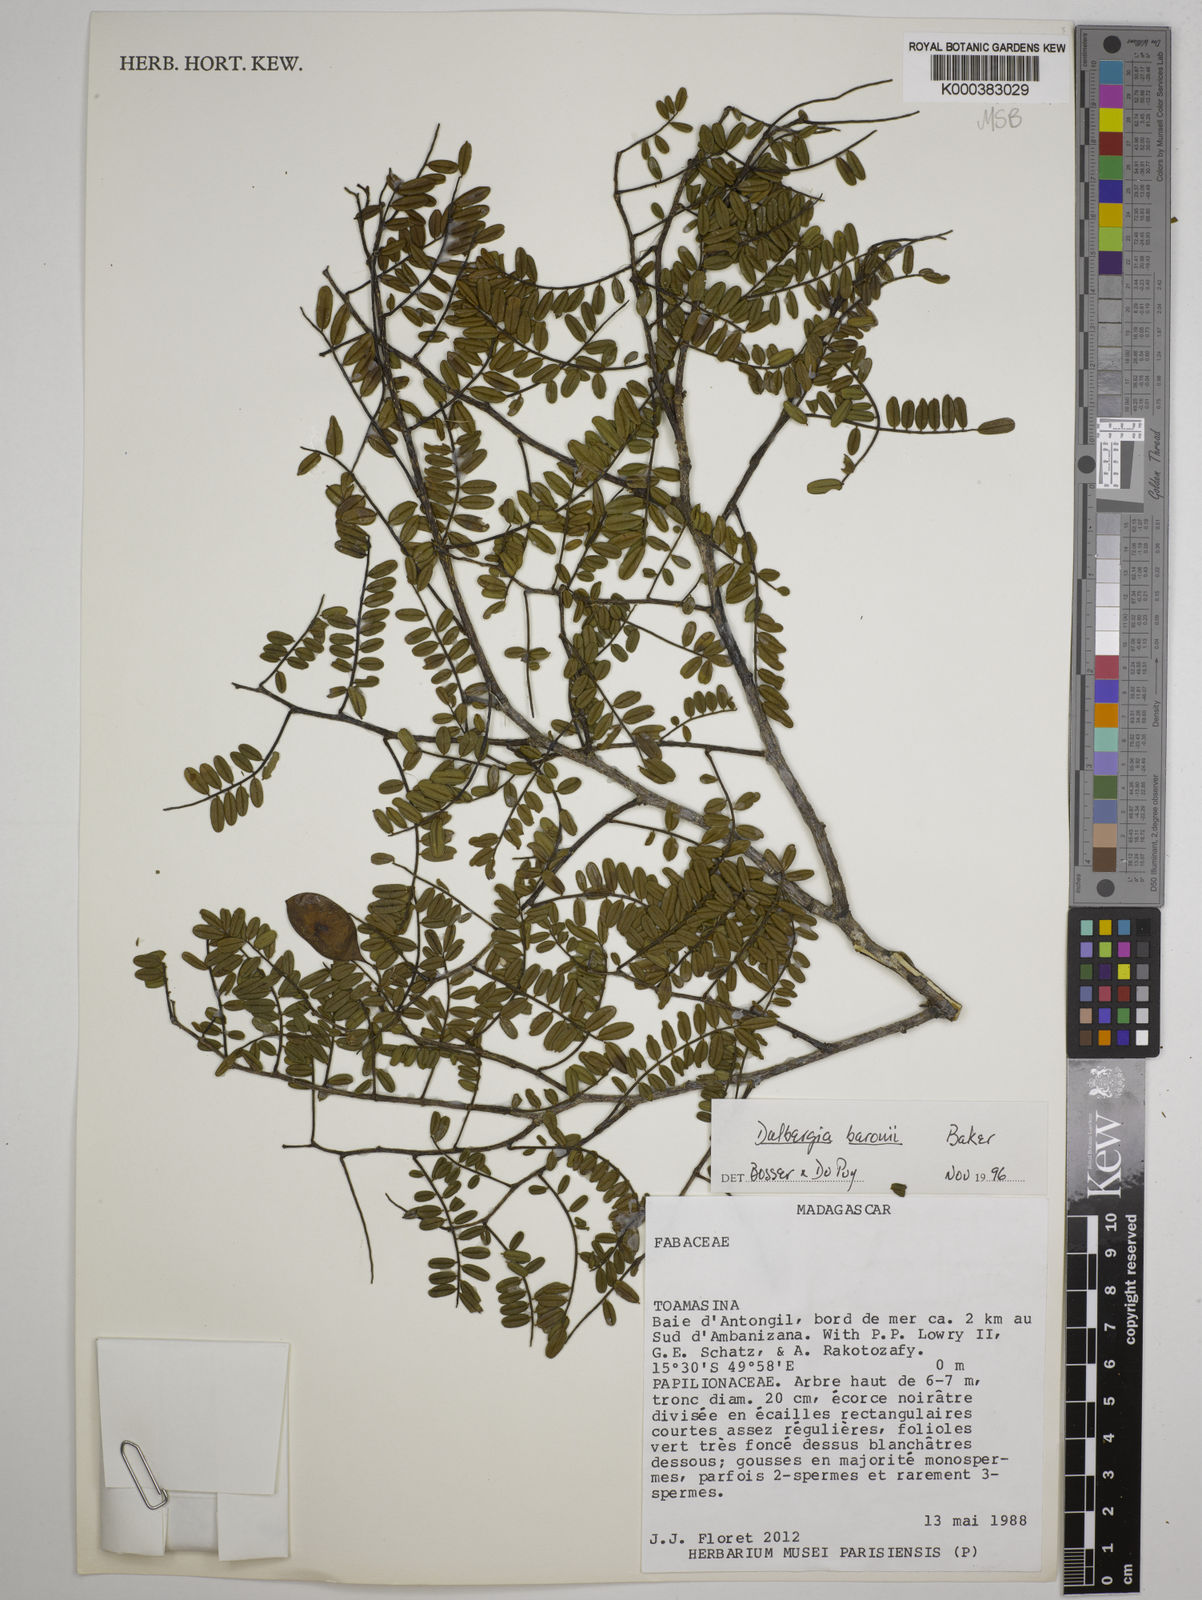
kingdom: Plantae
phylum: Tracheophyta
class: Magnoliopsida
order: Fabales
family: Fabaceae
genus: Dalbergia
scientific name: Dalbergia baronii
